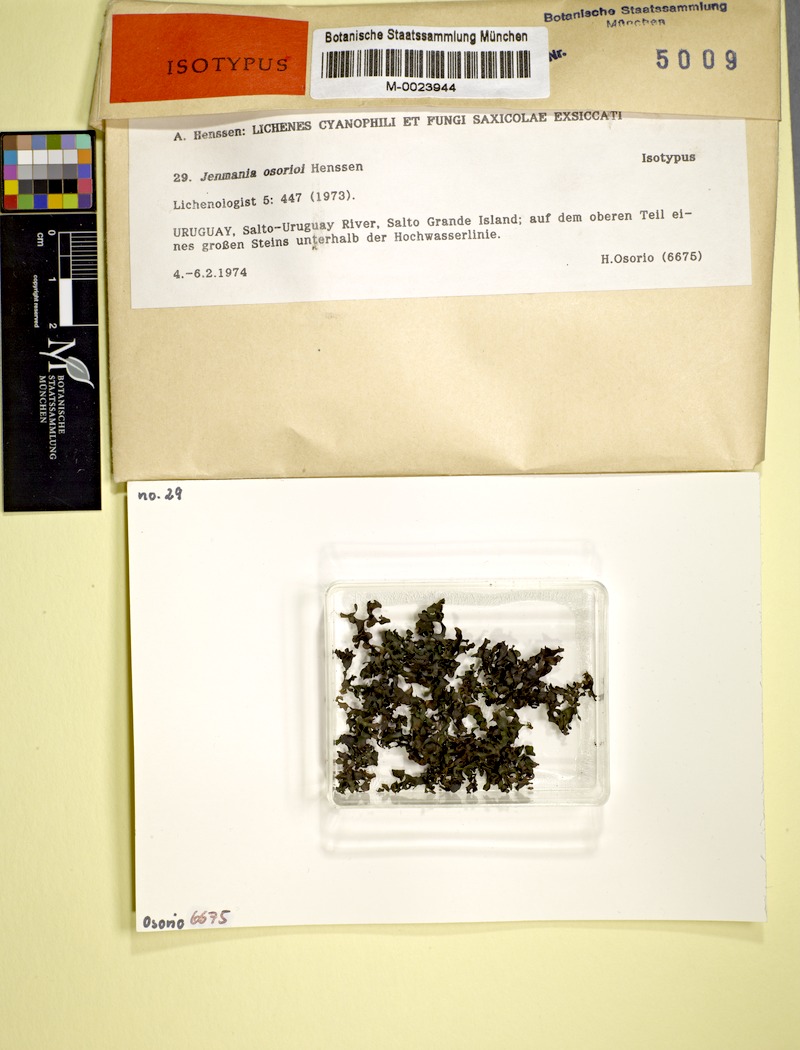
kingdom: Fungi
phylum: Ascomycota
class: Lichinomycetes
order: Lichinales
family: Lichinaceae
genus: Jenmania
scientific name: Jenmania osorioi
